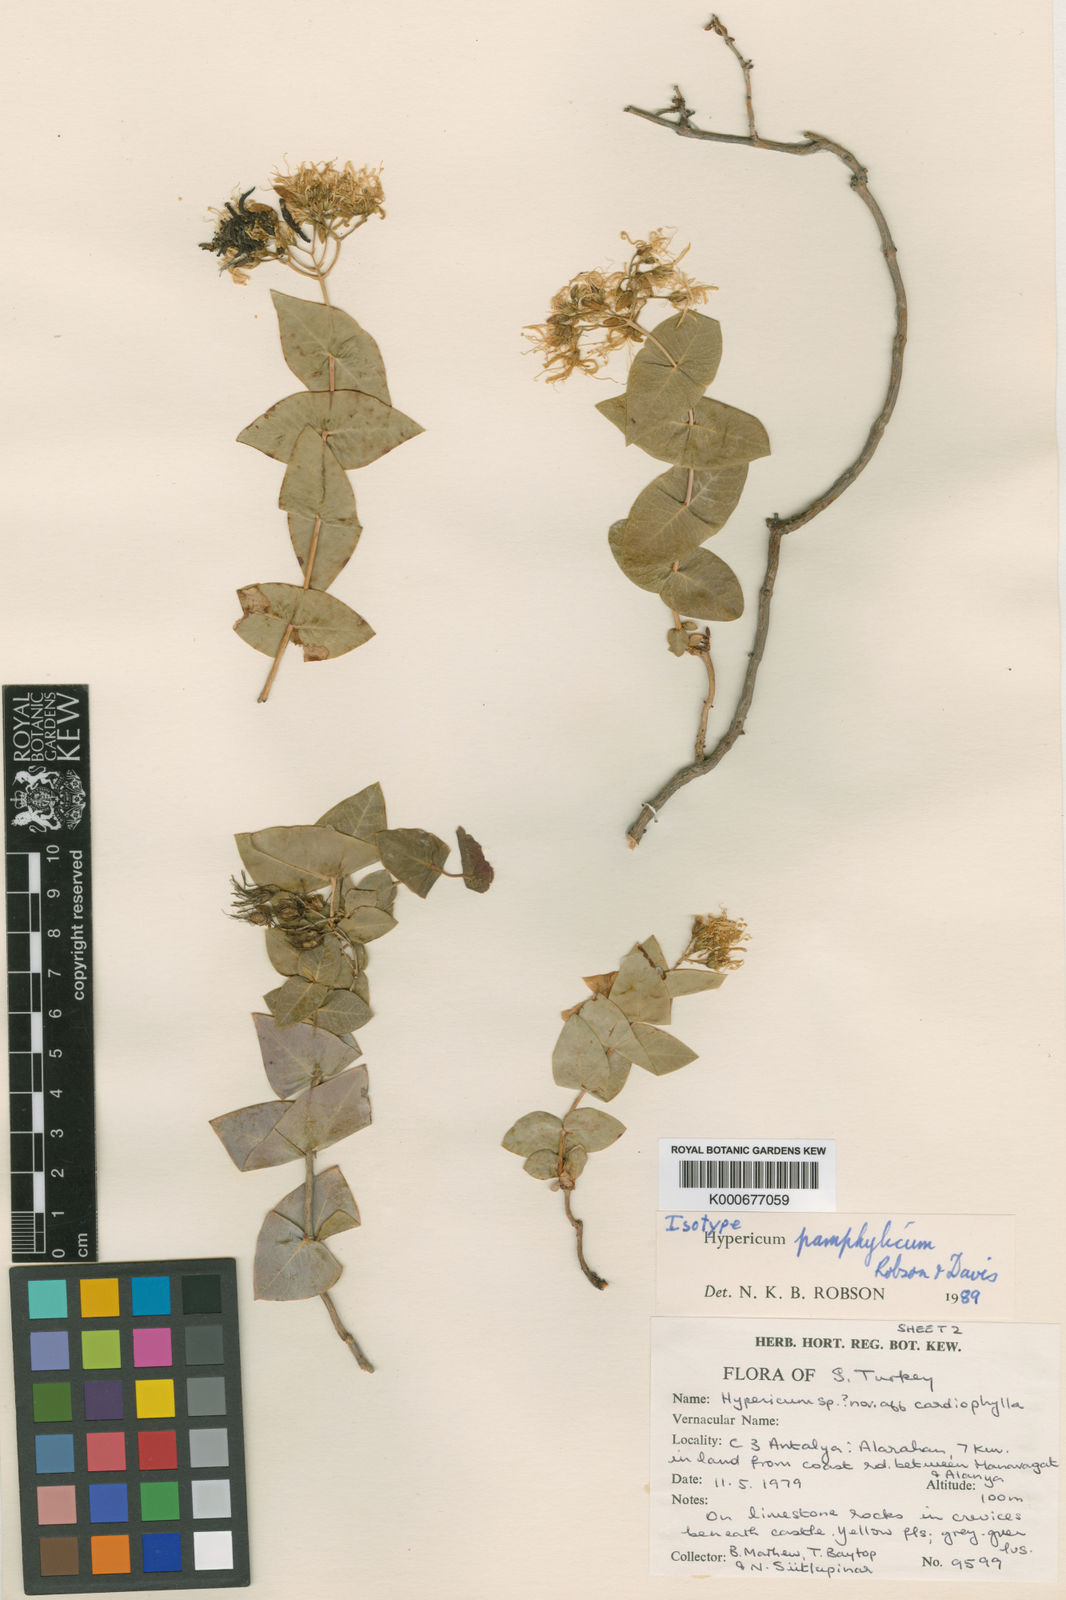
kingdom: Plantae
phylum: Tracheophyta
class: Magnoliopsida
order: Malpighiales
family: Hypericaceae
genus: Hypericum
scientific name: Hypericum
